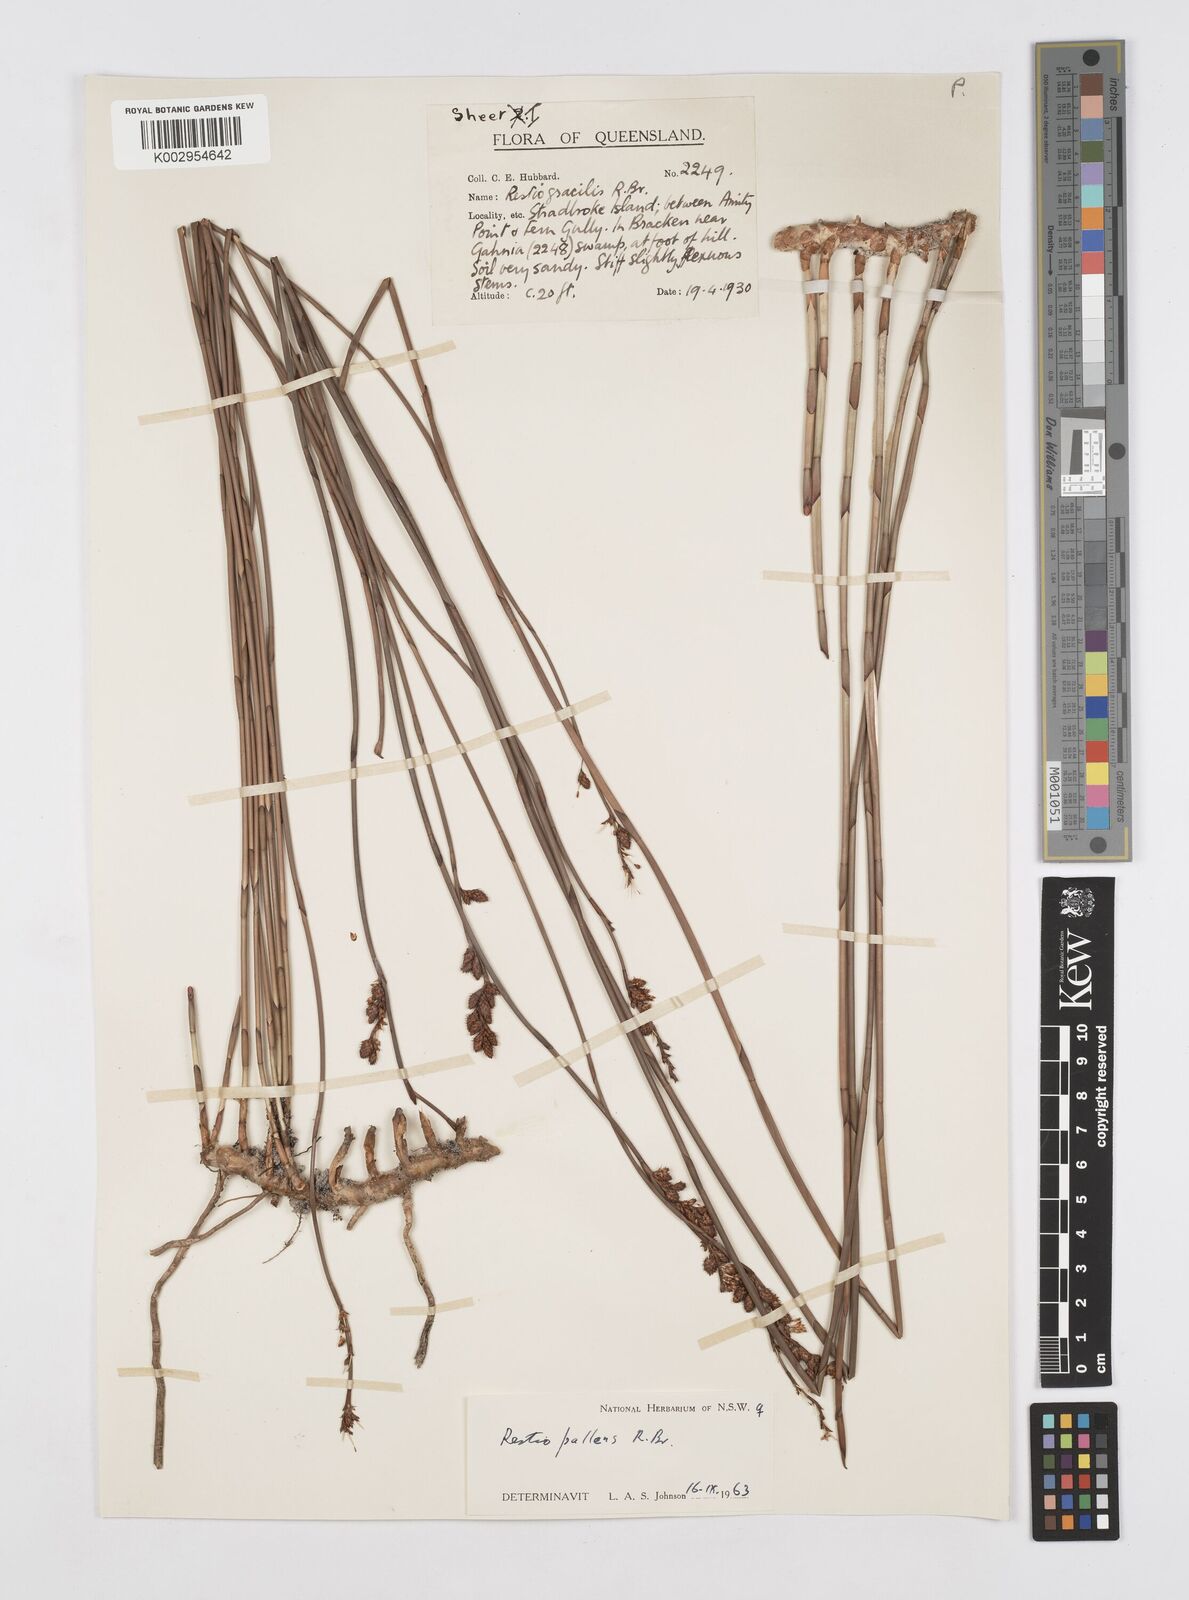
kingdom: Plantae
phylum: Tracheophyta
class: Liliopsida
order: Poales
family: Restionaceae
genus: Baloskion
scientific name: Baloskion pallens
